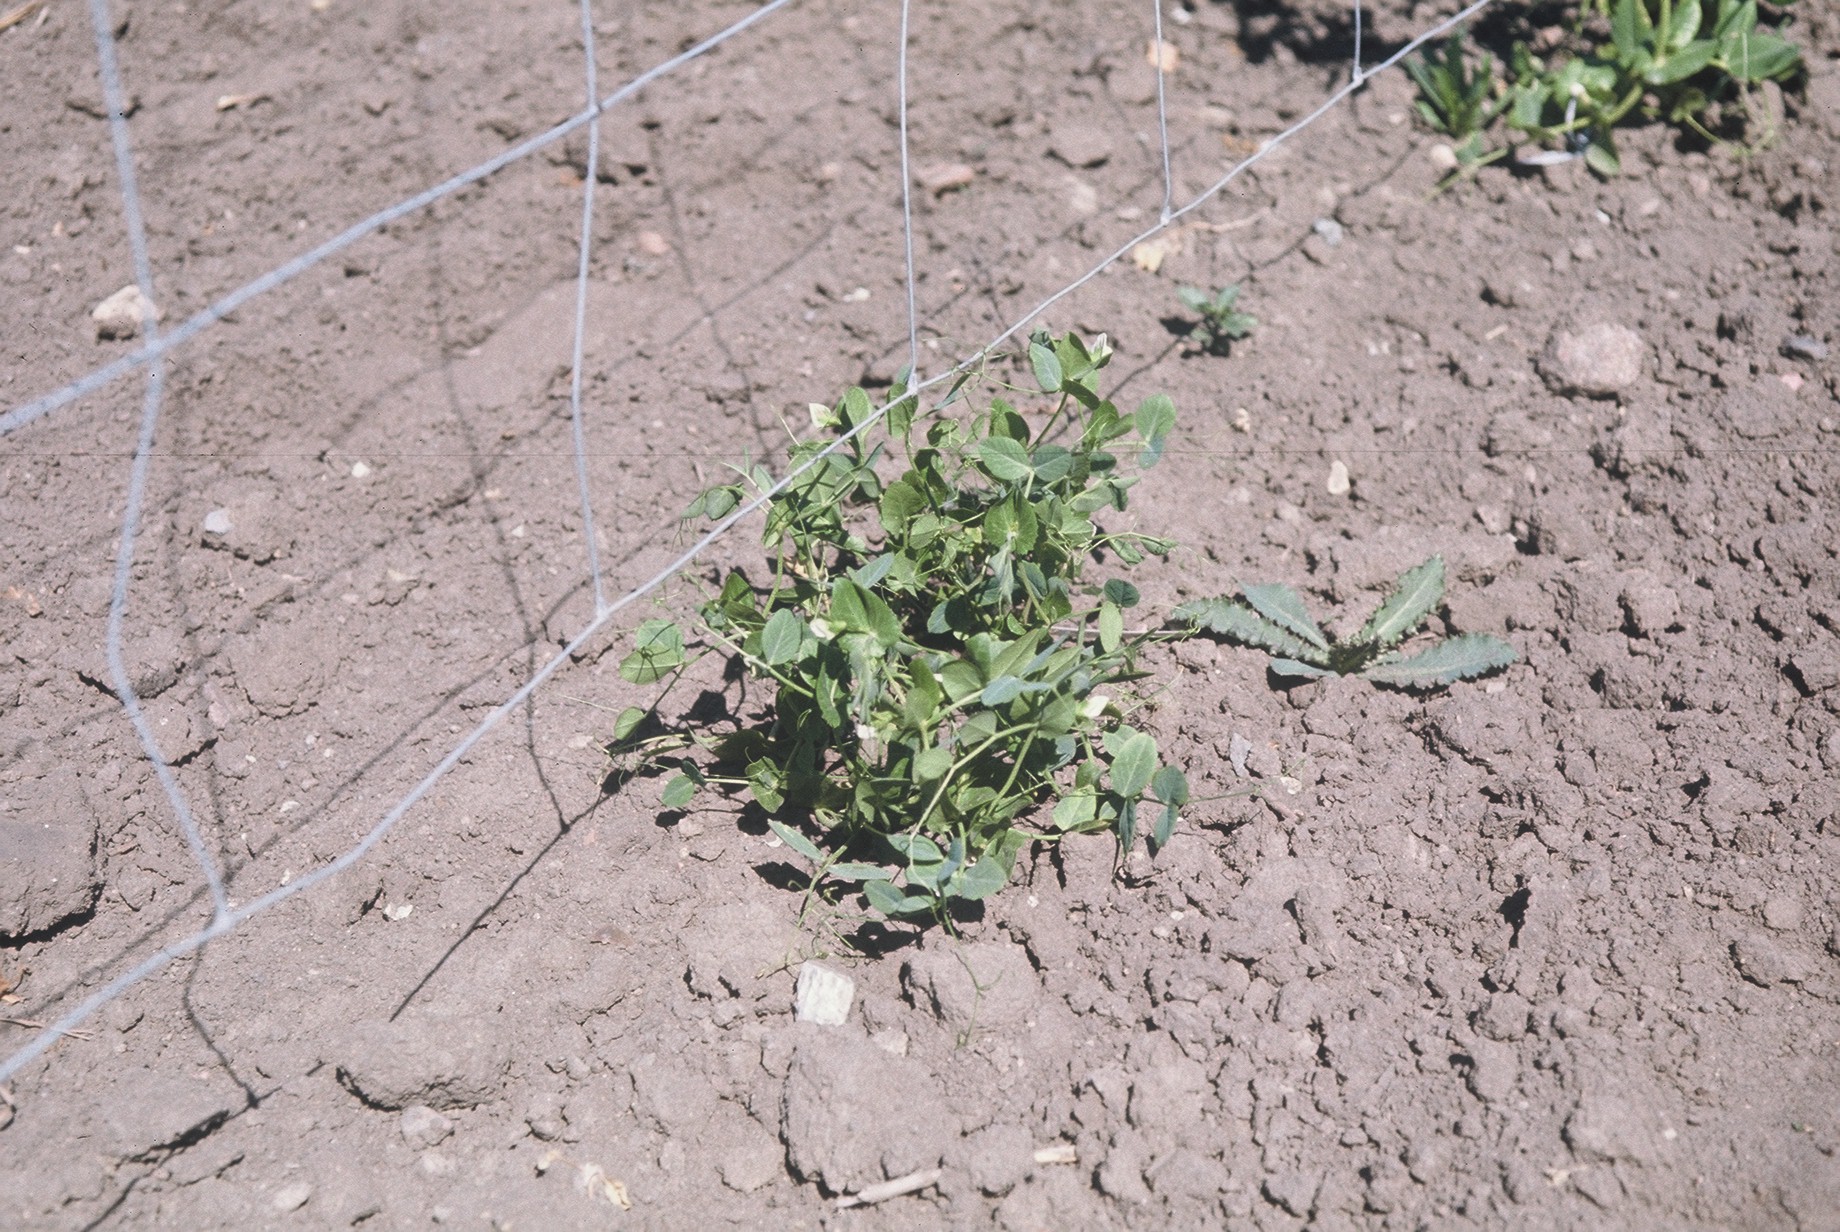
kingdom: Plantae
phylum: Tracheophyta
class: Magnoliopsida
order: Fabales
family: Fabaceae
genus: Lathyrus
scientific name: Lathyrus oleraceus
